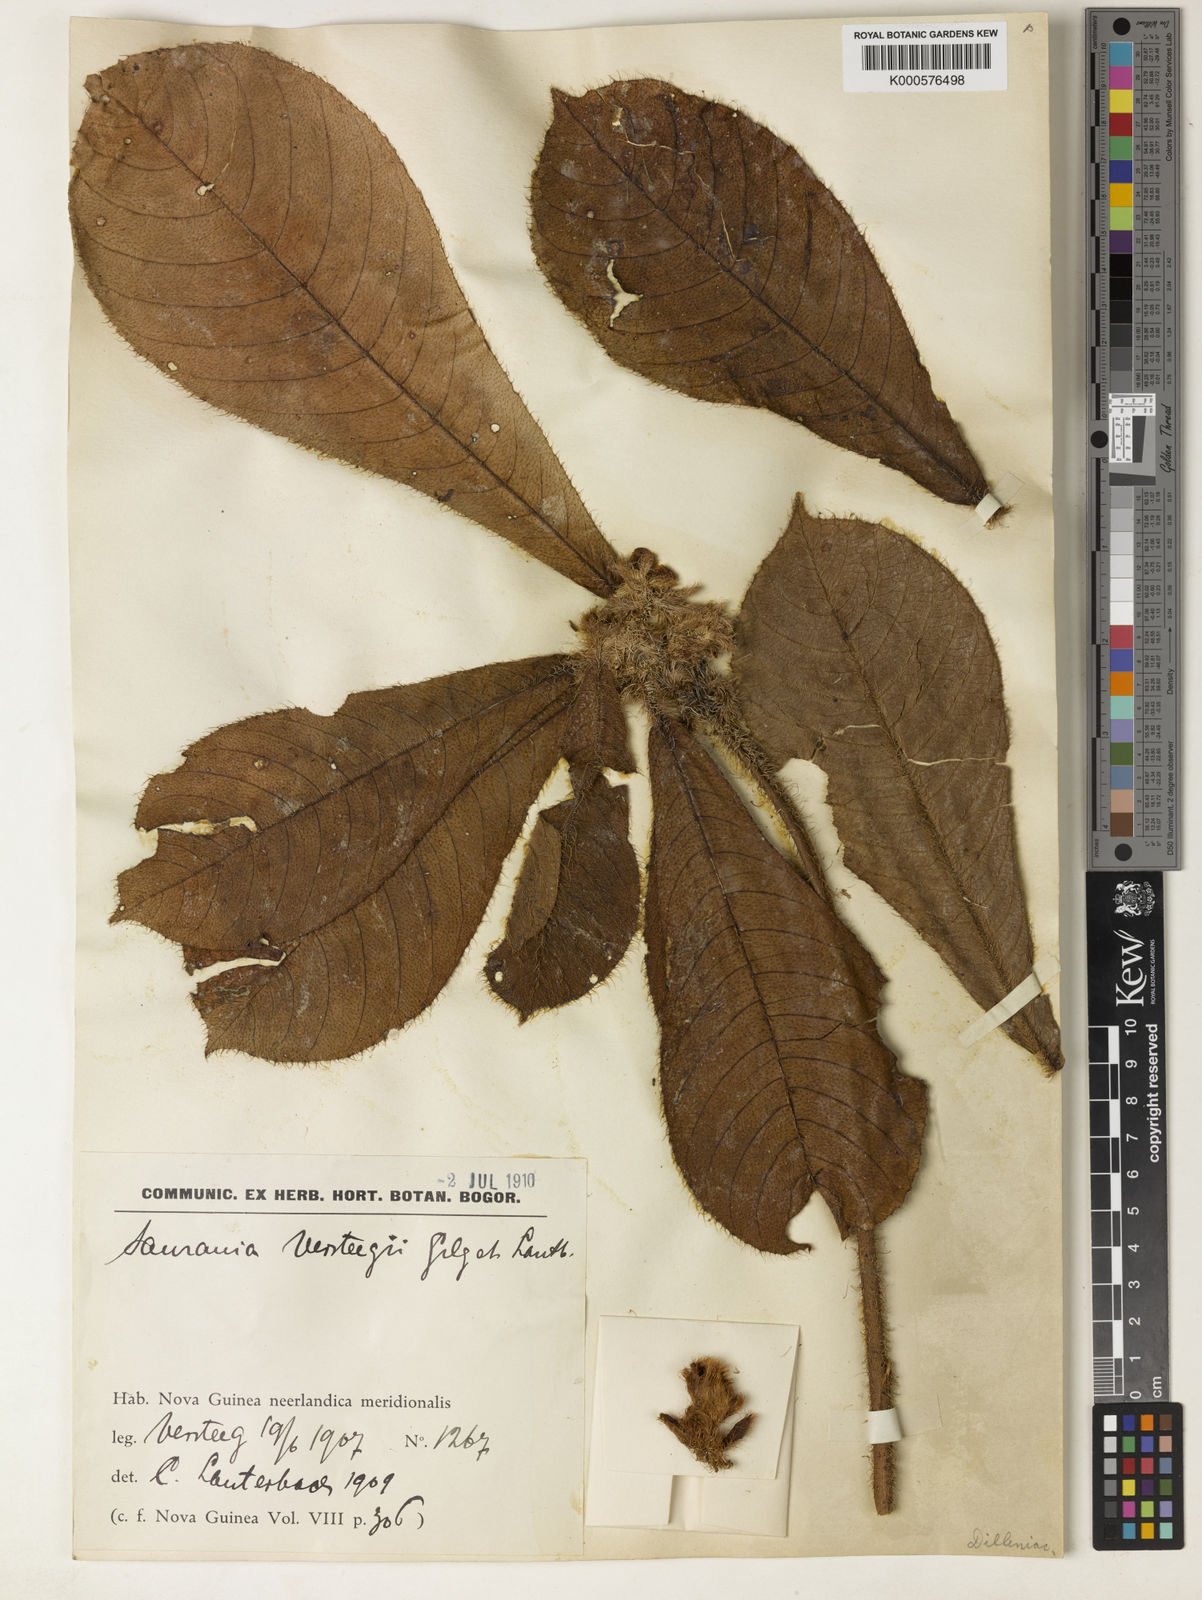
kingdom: Plantae
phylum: Tracheophyta
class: Magnoliopsida
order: Ericales
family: Actinidiaceae
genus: Saurauia
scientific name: Saurauia versteegii
